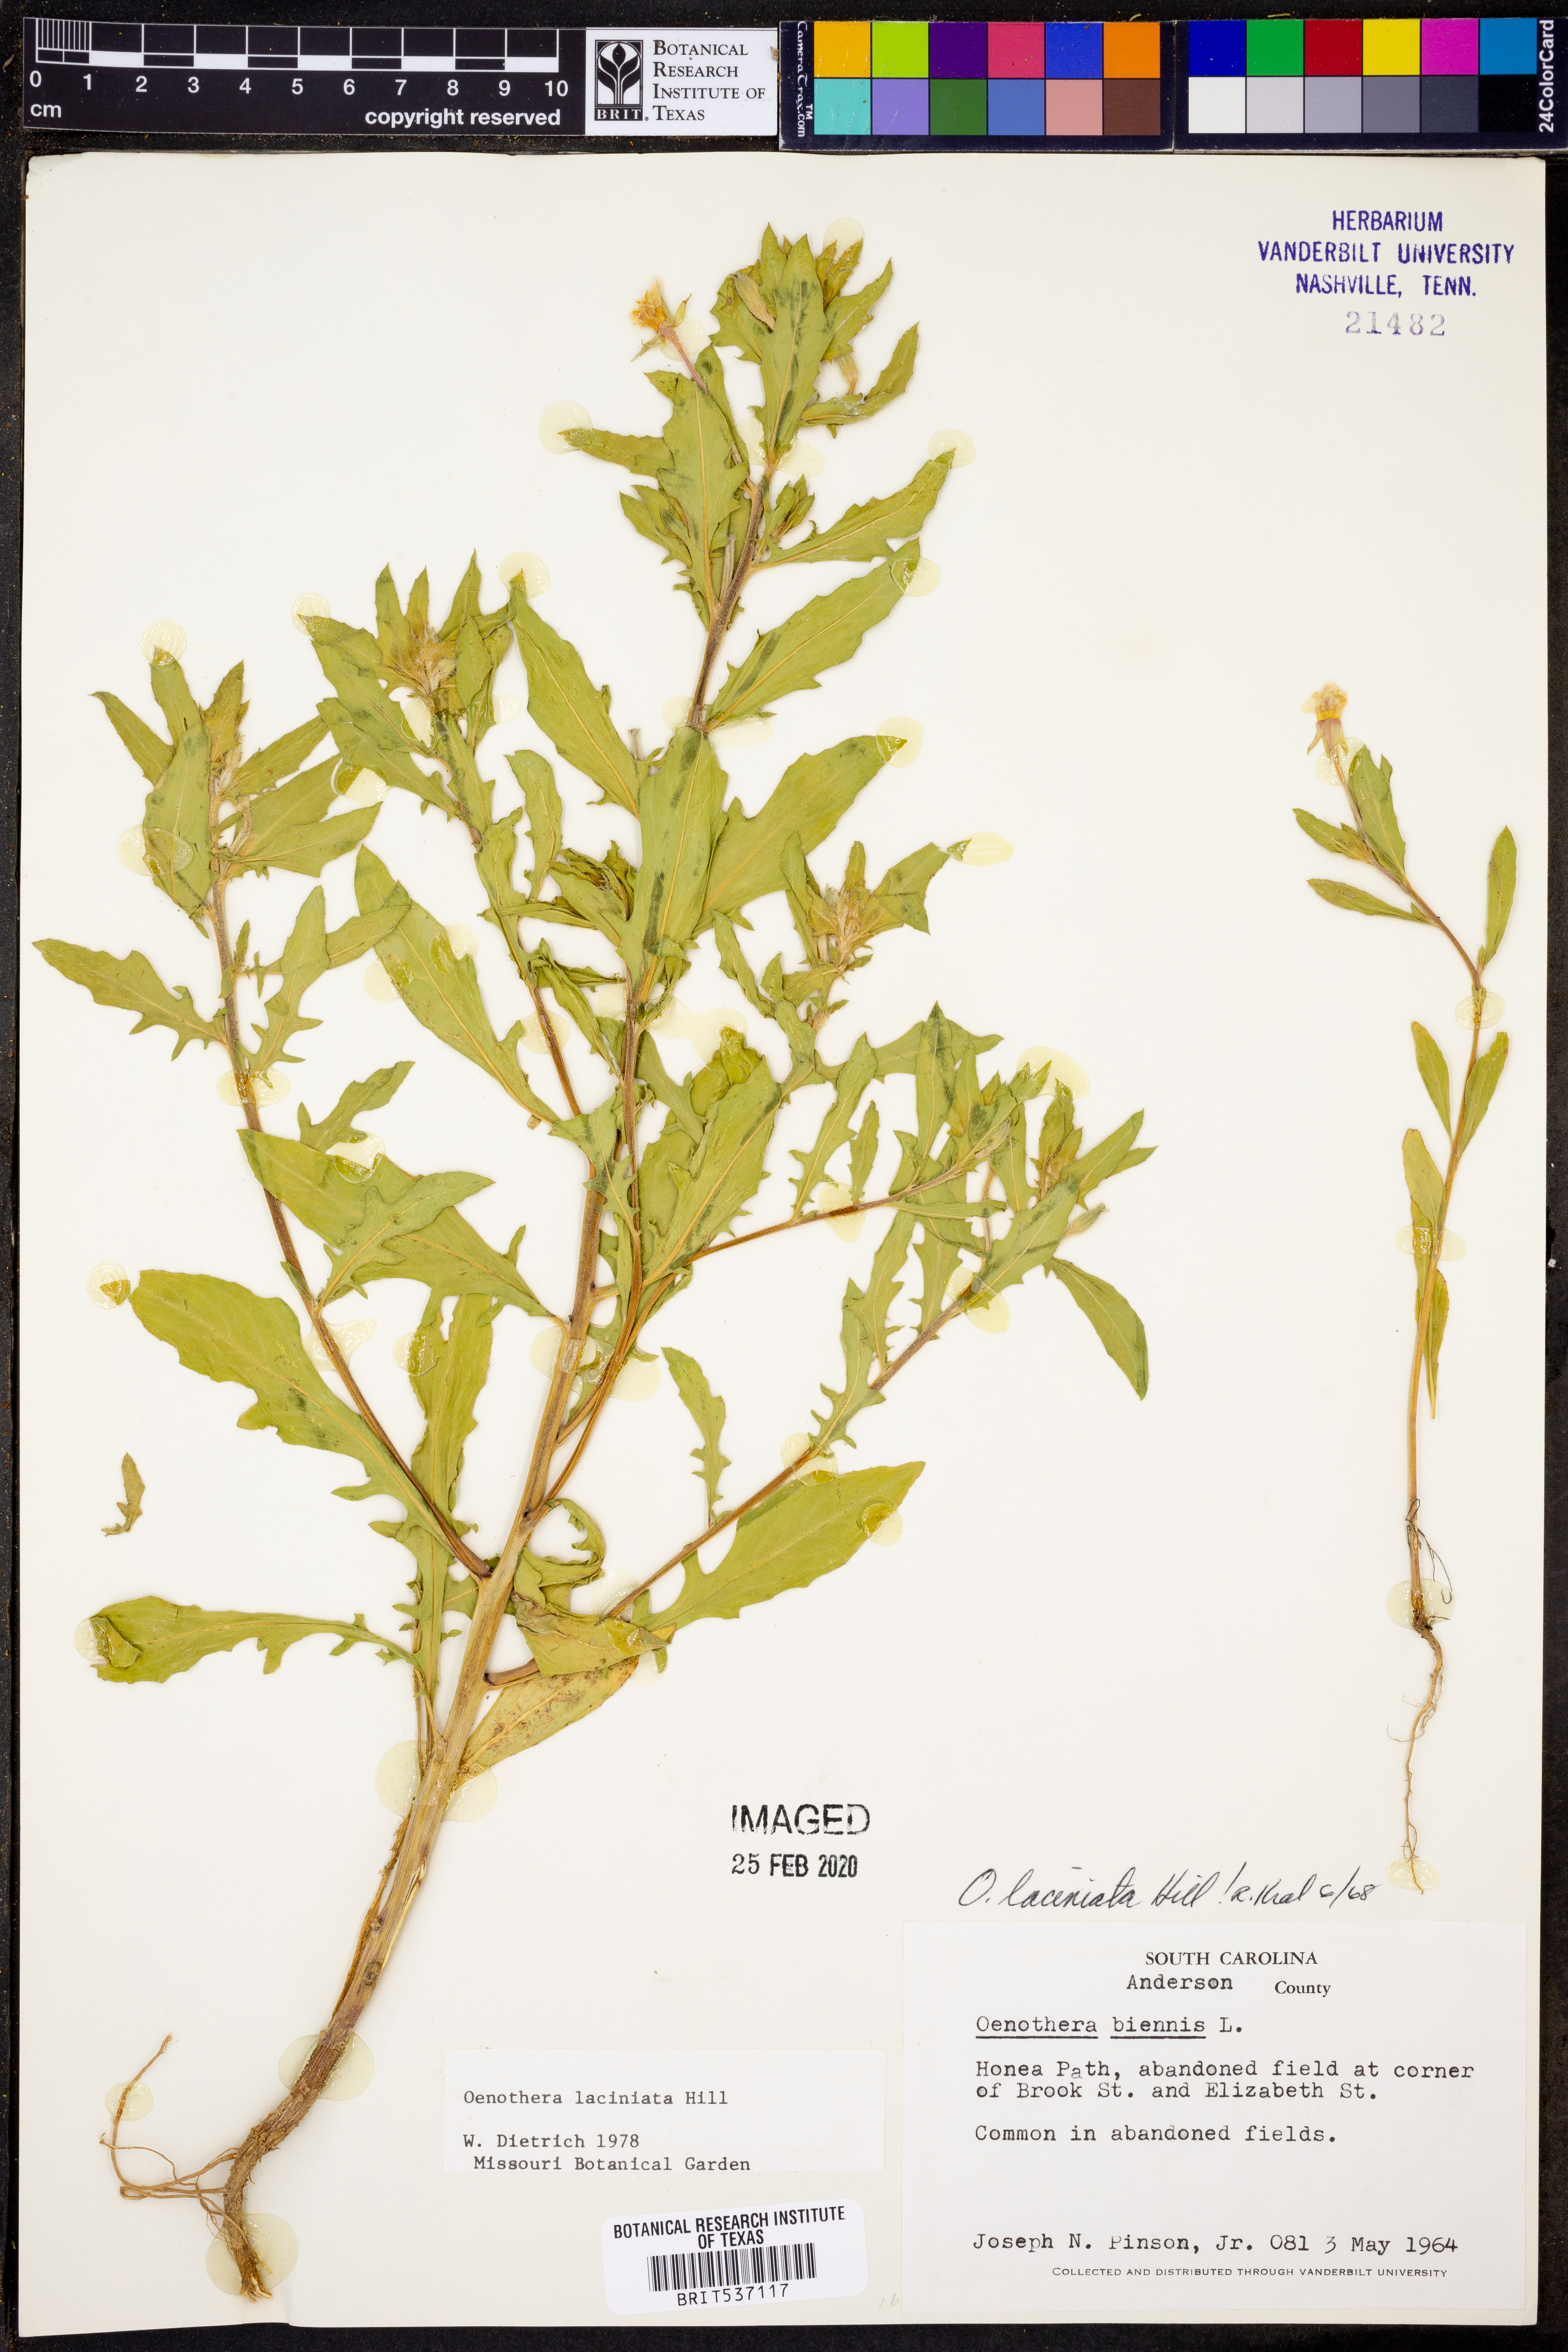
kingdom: Plantae
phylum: Tracheophyta
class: Magnoliopsida
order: Myrtales
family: Onagraceae
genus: Oenothera
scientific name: Oenothera laciniata
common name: Cut-leaved evening-primrose
